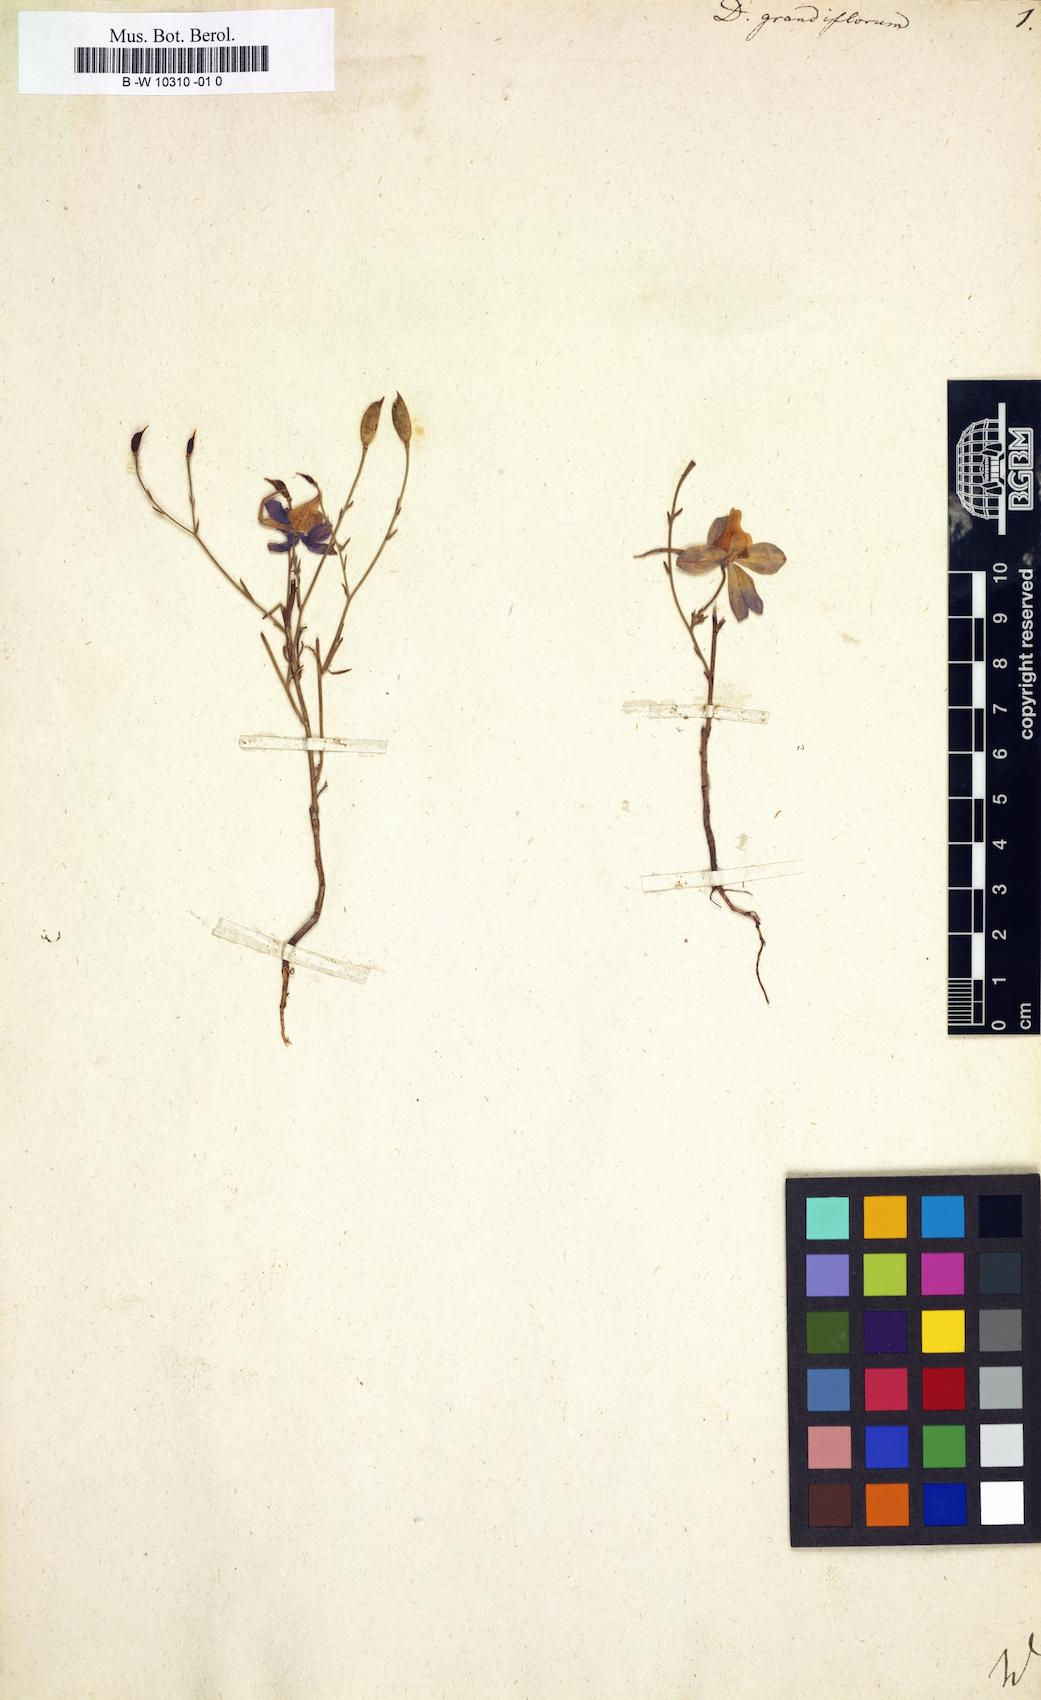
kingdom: Plantae
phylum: Tracheophyta
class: Magnoliopsida
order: Ranunculales
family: Ranunculaceae
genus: Delphinium
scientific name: Delphinium grandiflorum
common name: Siberian larkspur
